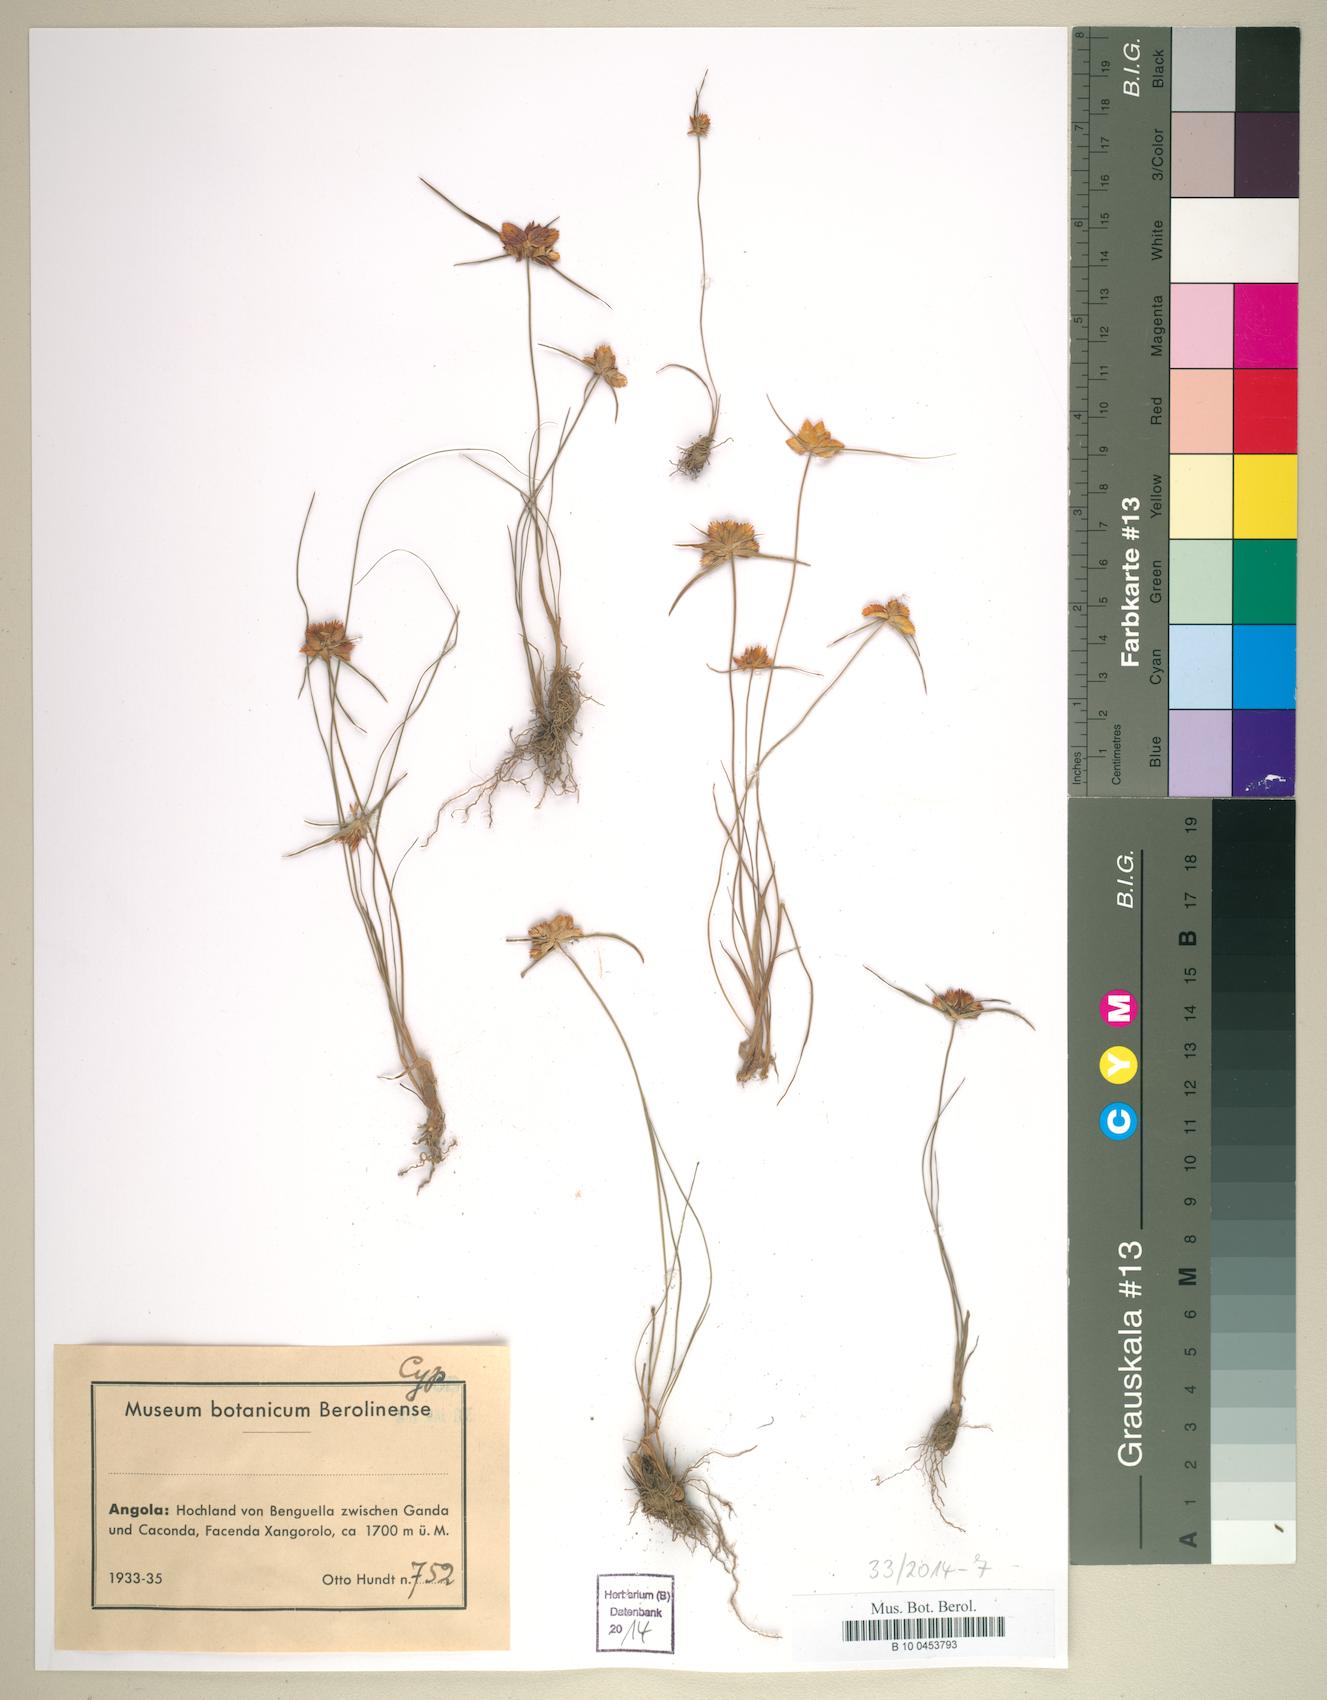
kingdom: Plantae
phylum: Tracheophyta
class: Liliopsida
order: Poales
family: Cyperaceae
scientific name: Cyperaceae
